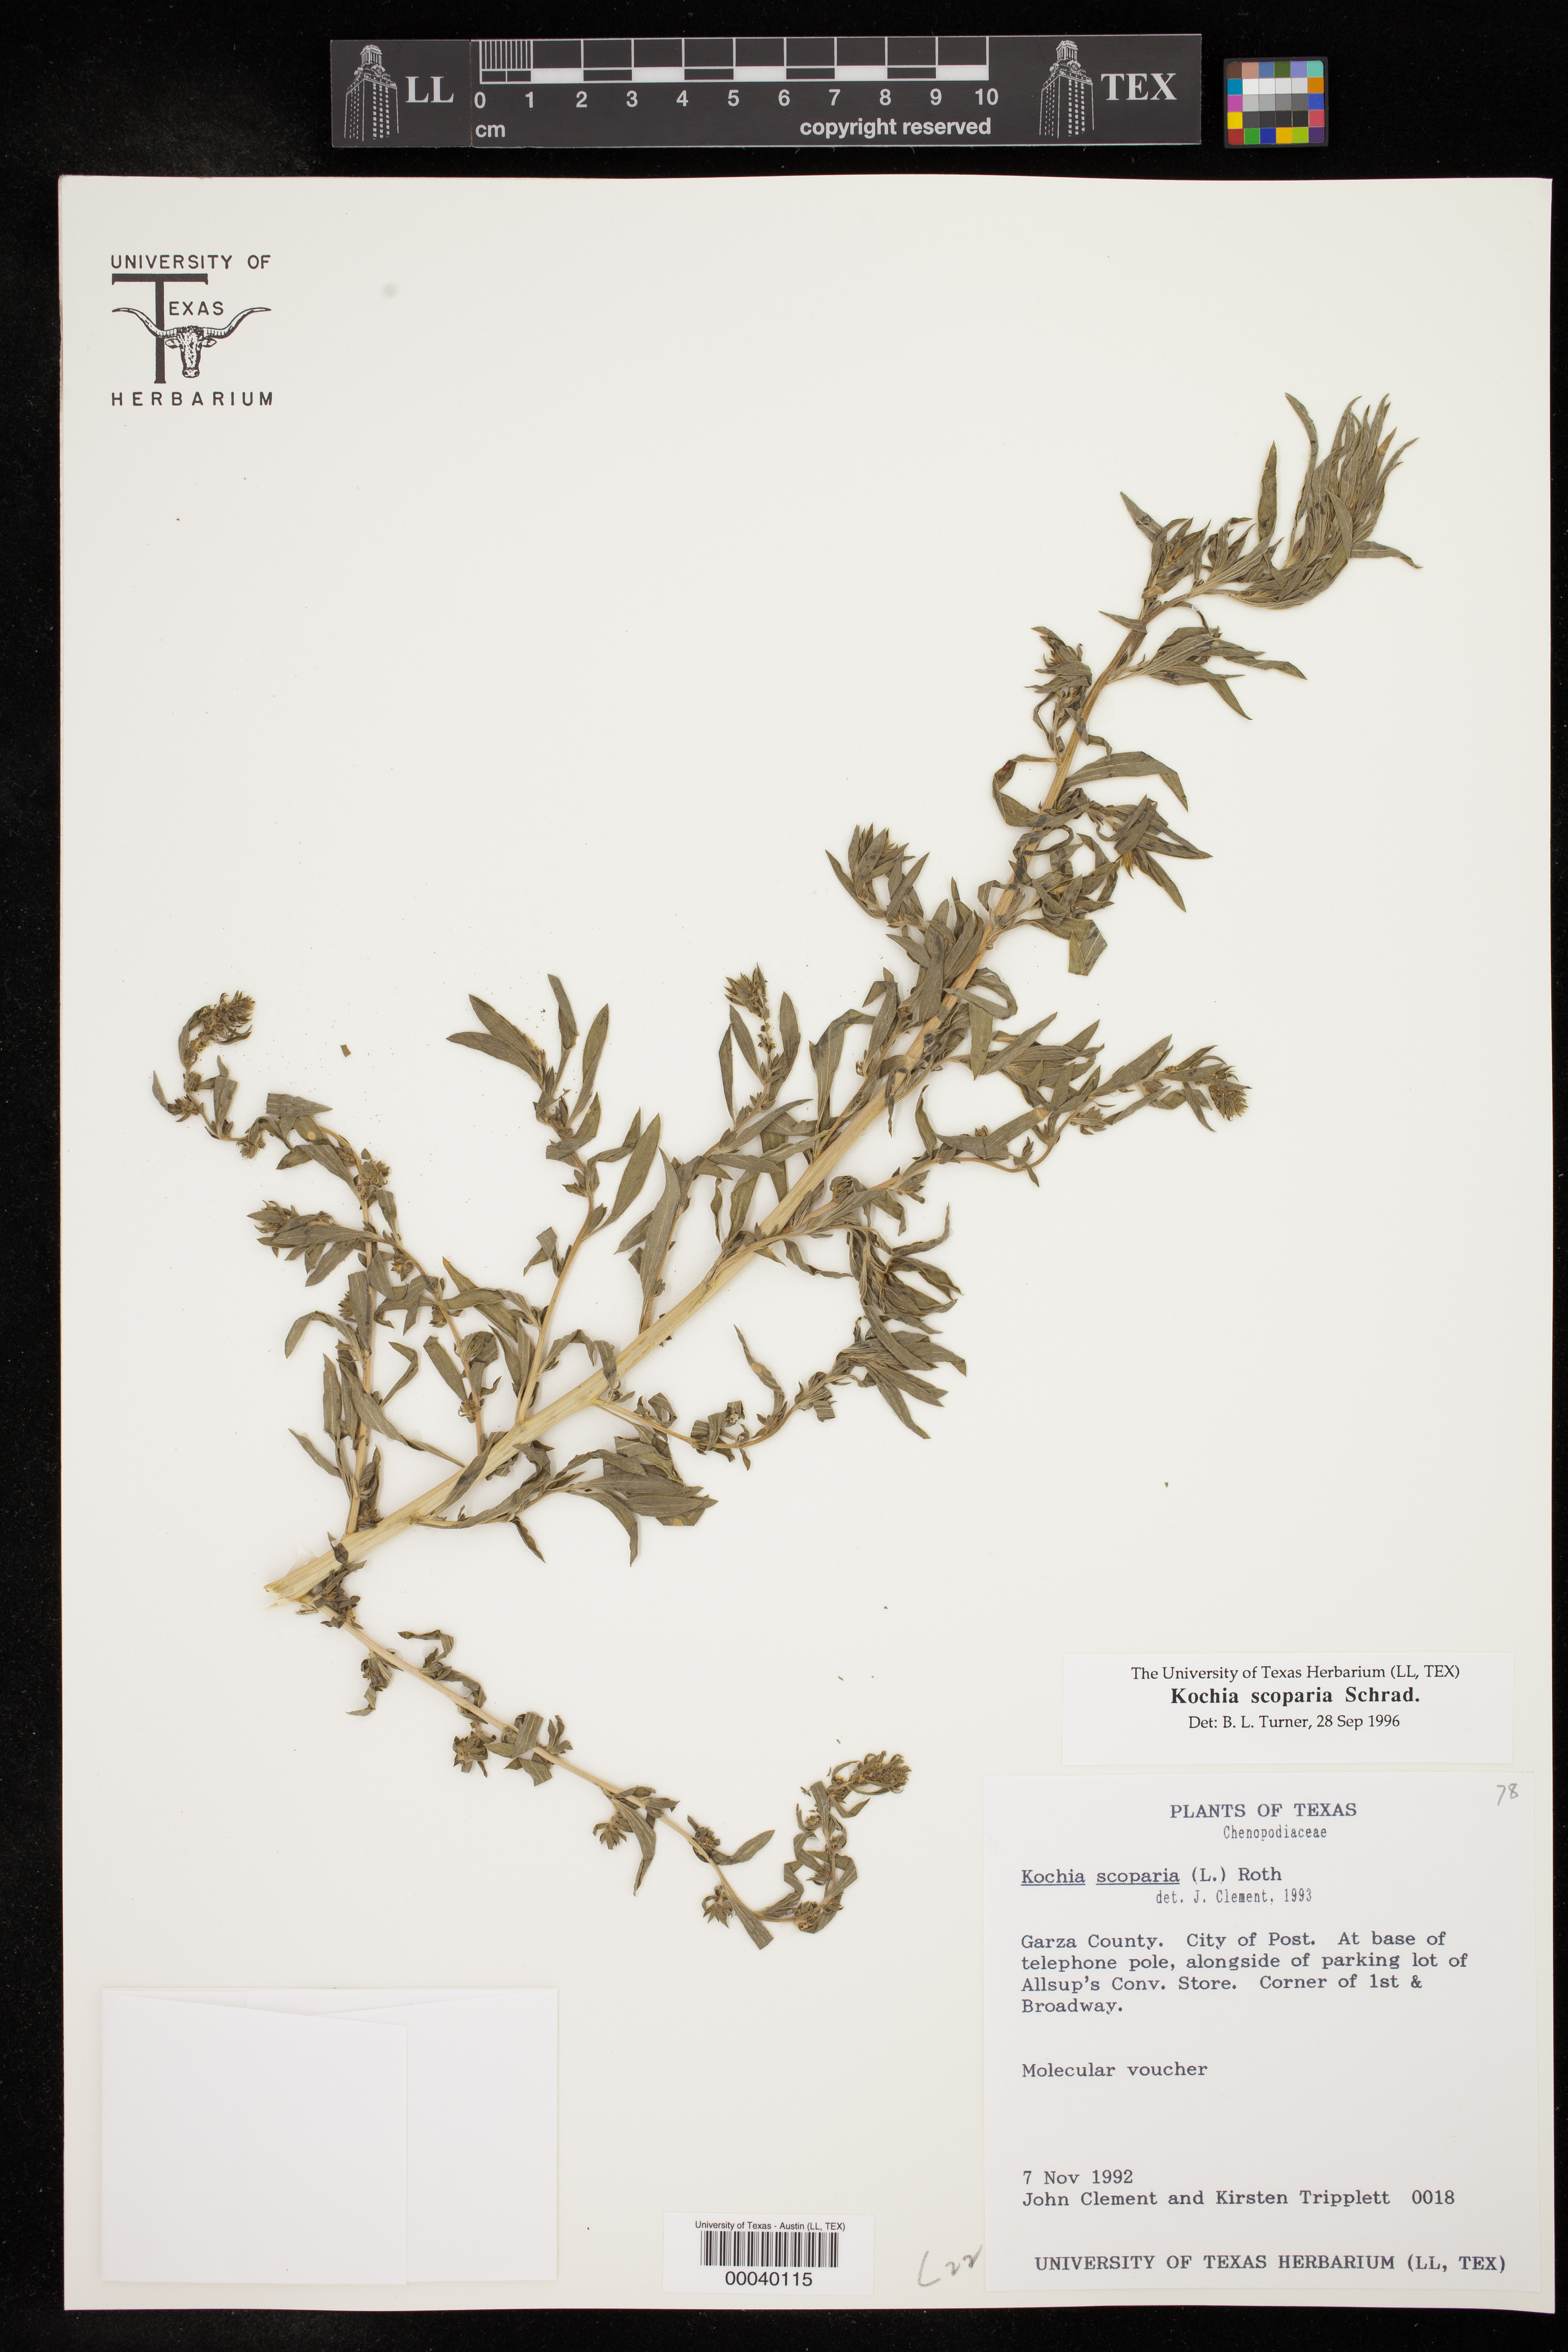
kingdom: Plantae
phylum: Tracheophyta
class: Magnoliopsida
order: Caryophyllales
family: Amaranthaceae
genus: Bassia
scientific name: Bassia scoparia
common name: Belvedere
